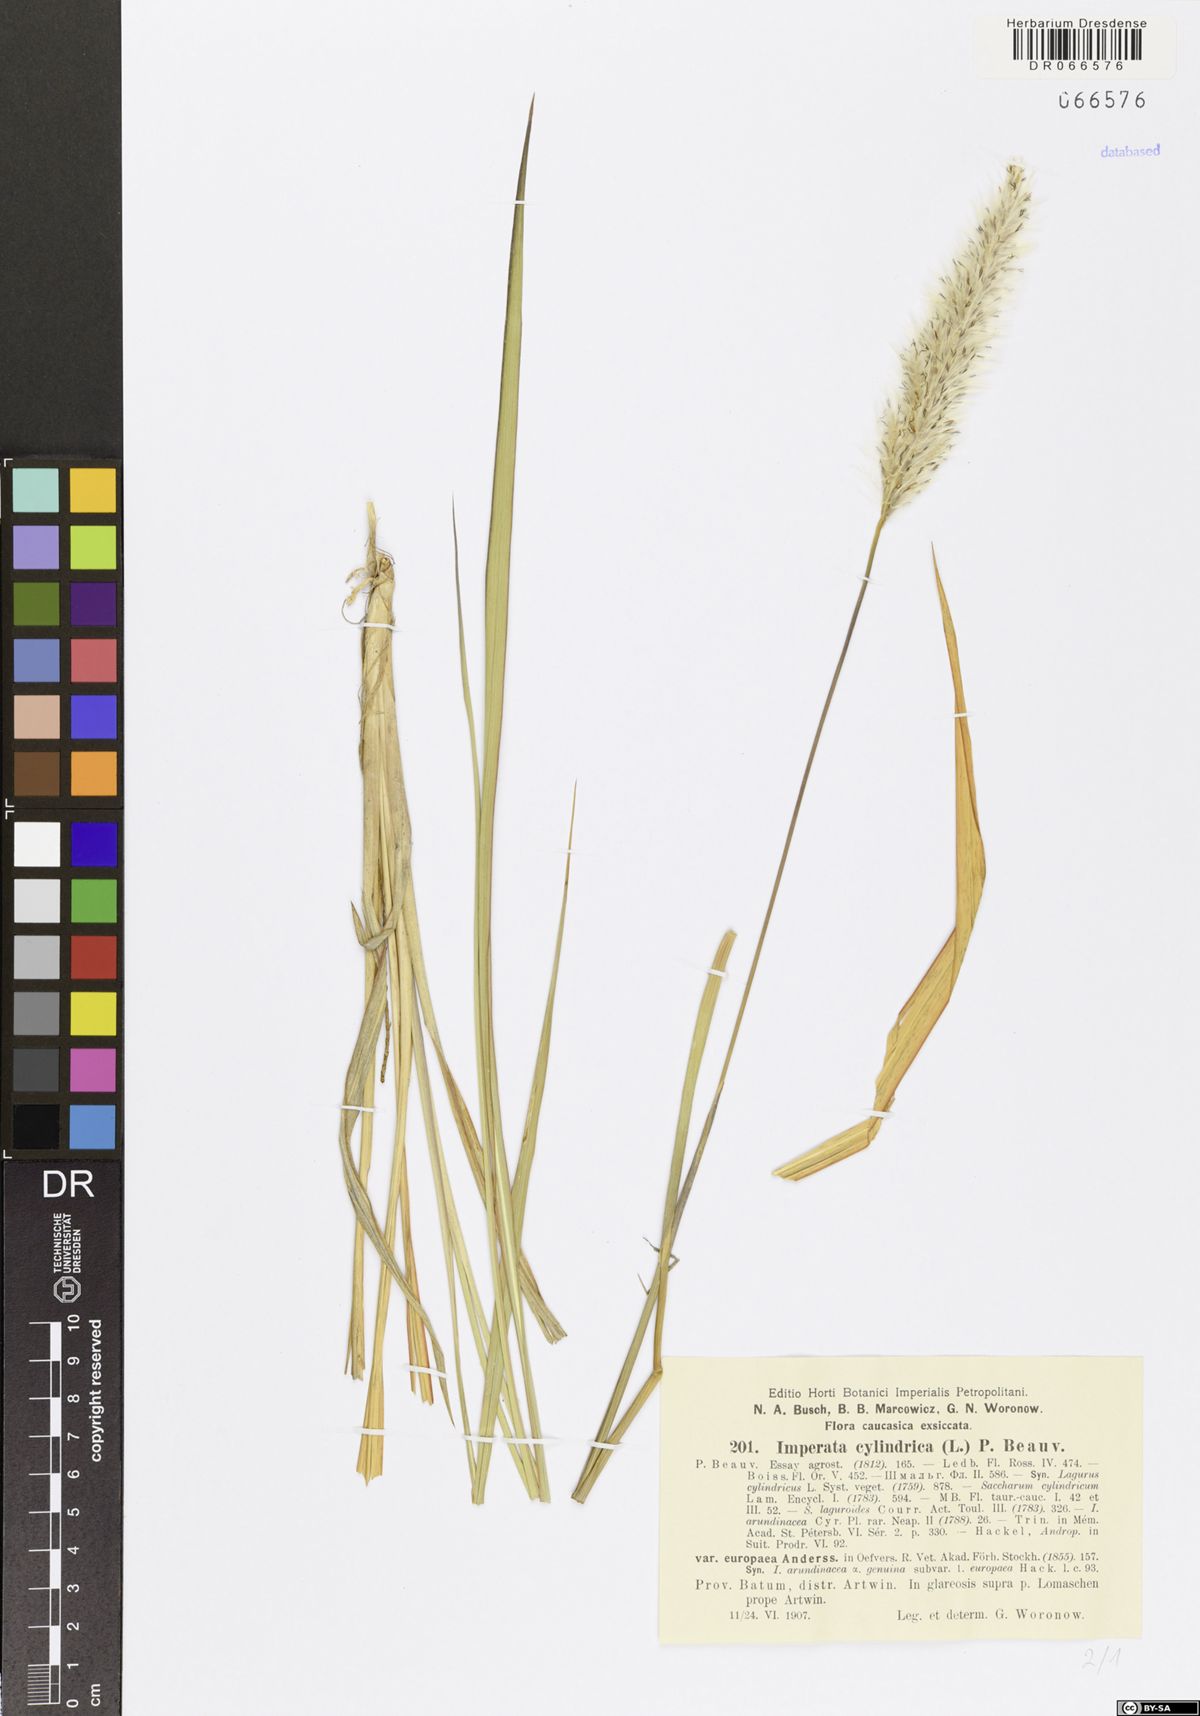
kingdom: Plantae
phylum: Tracheophyta
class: Liliopsida
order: Poales
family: Poaceae
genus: Imperata
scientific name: Imperata cylindrica
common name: Cogongrass
